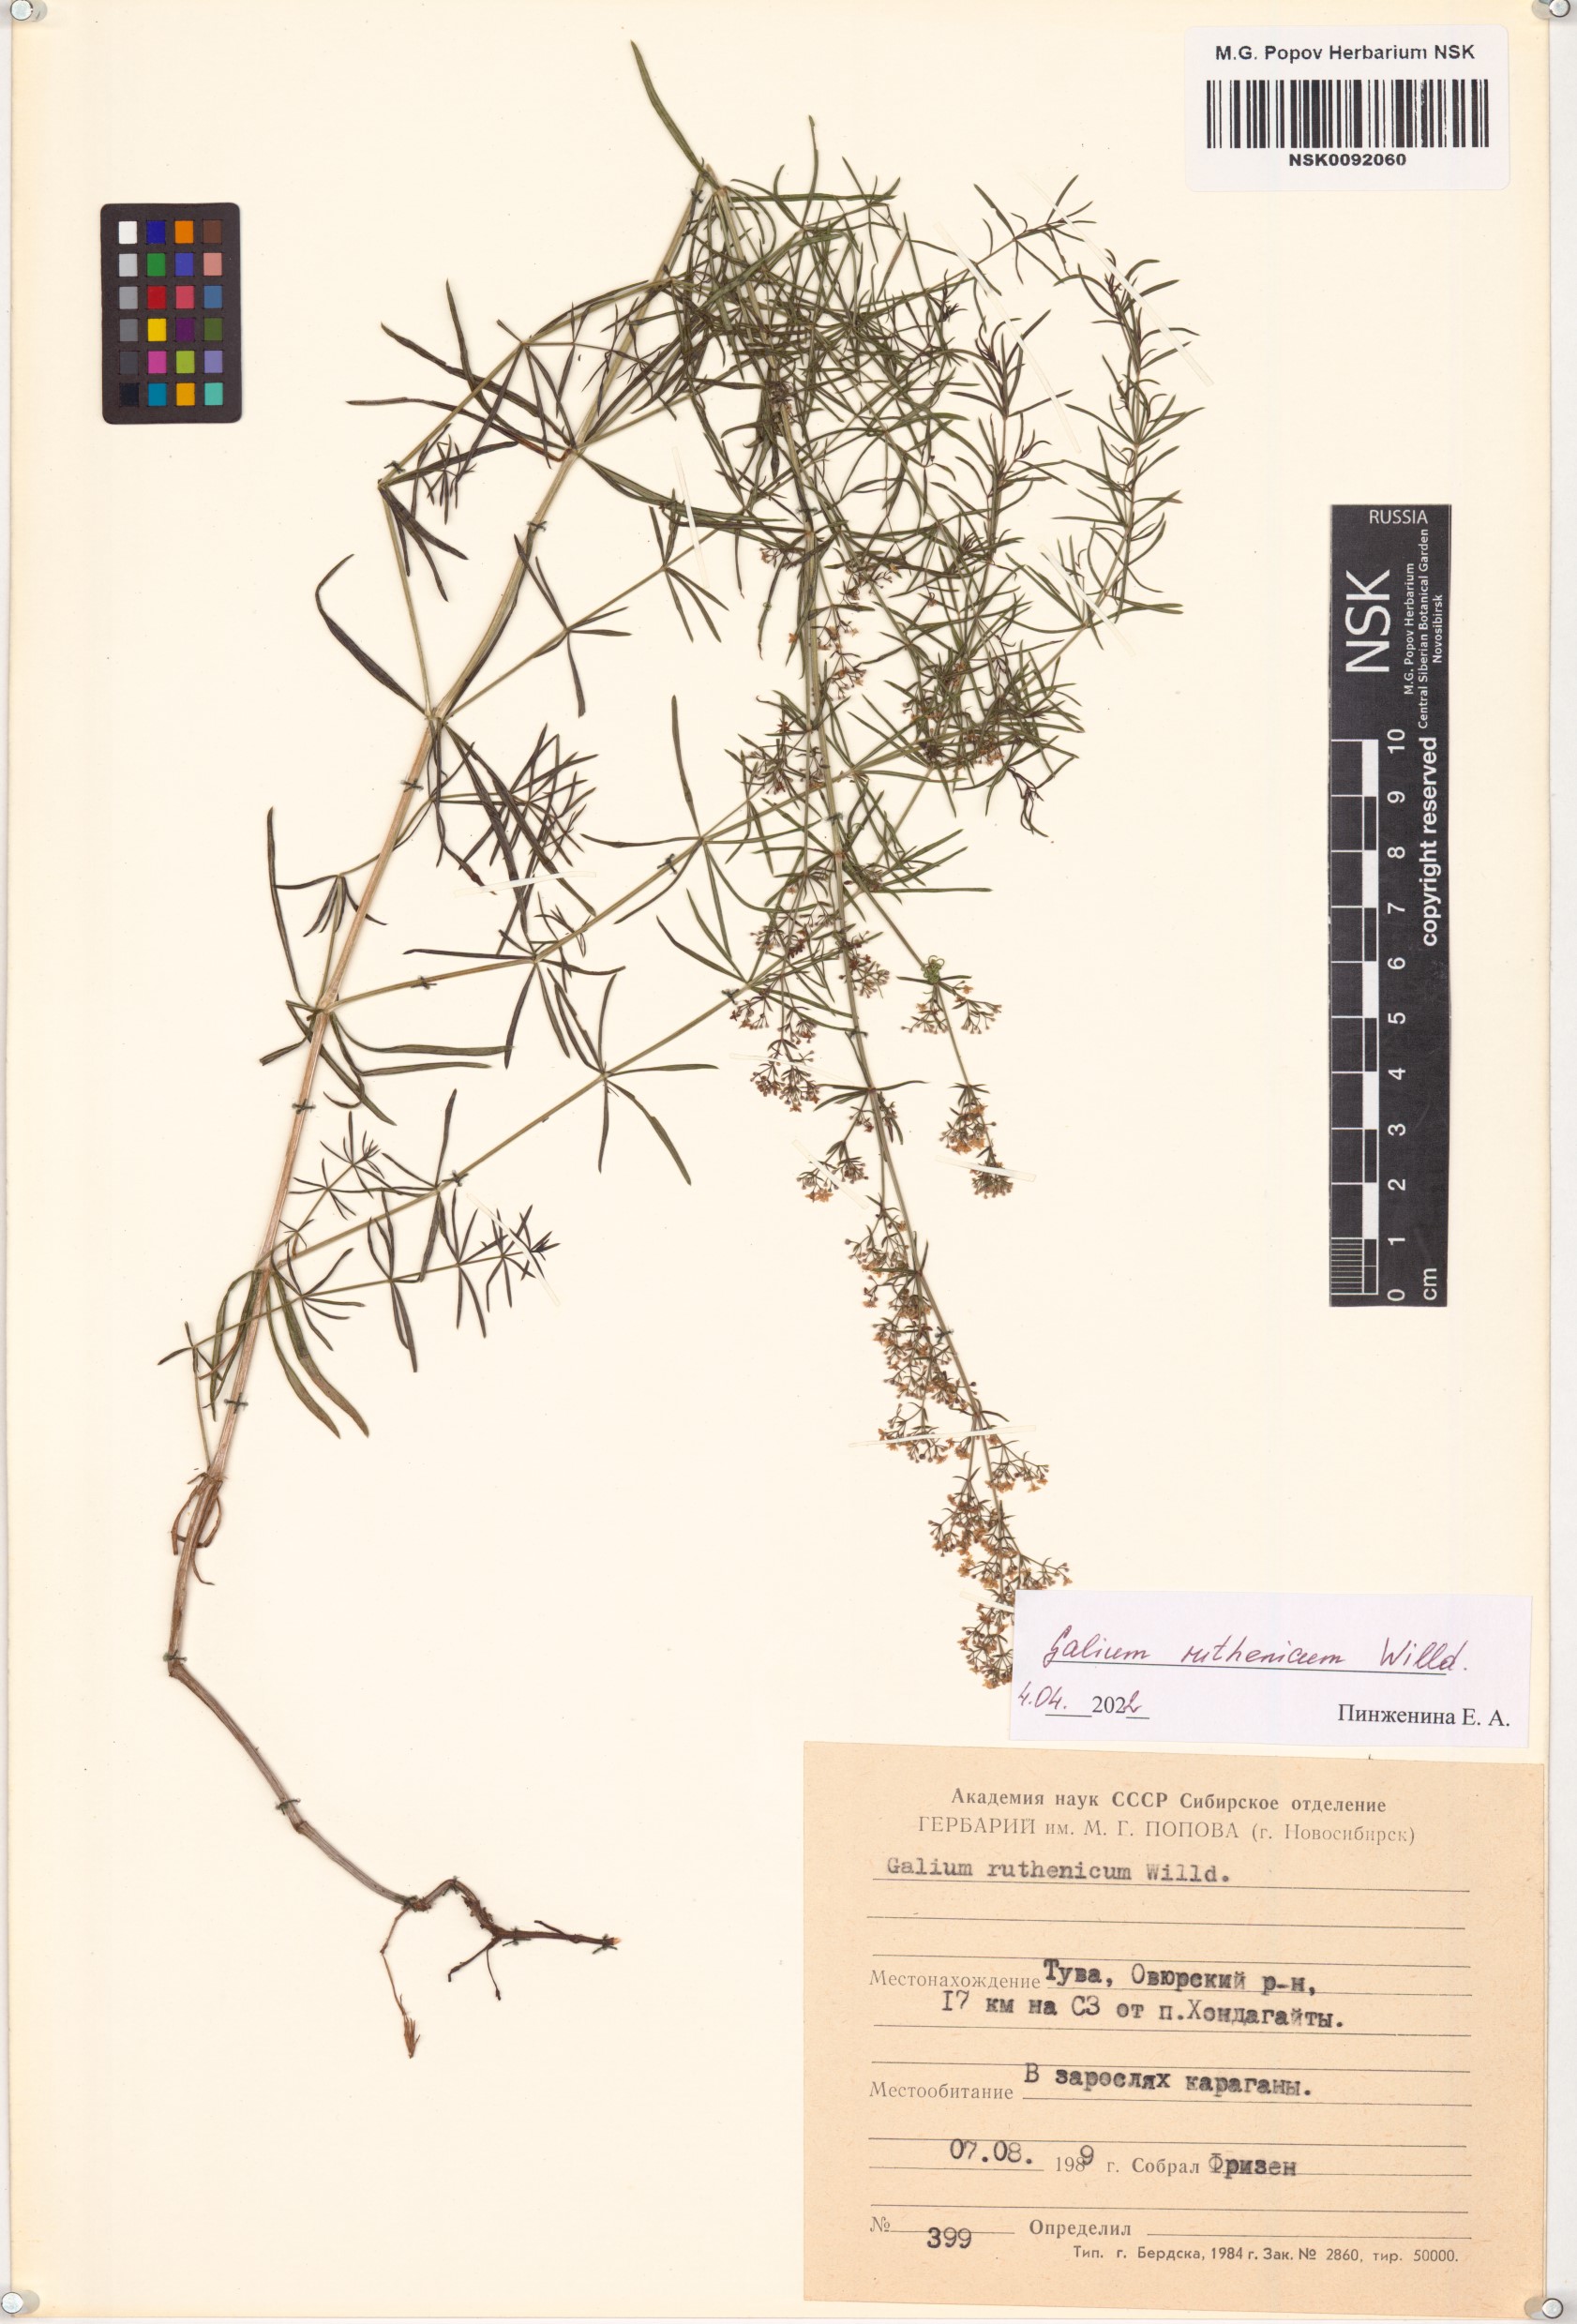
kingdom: Plantae
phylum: Tracheophyta
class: Magnoliopsida
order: Gentianales
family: Rubiaceae
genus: Galium
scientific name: Galium verum
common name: Lady's bedstraw
